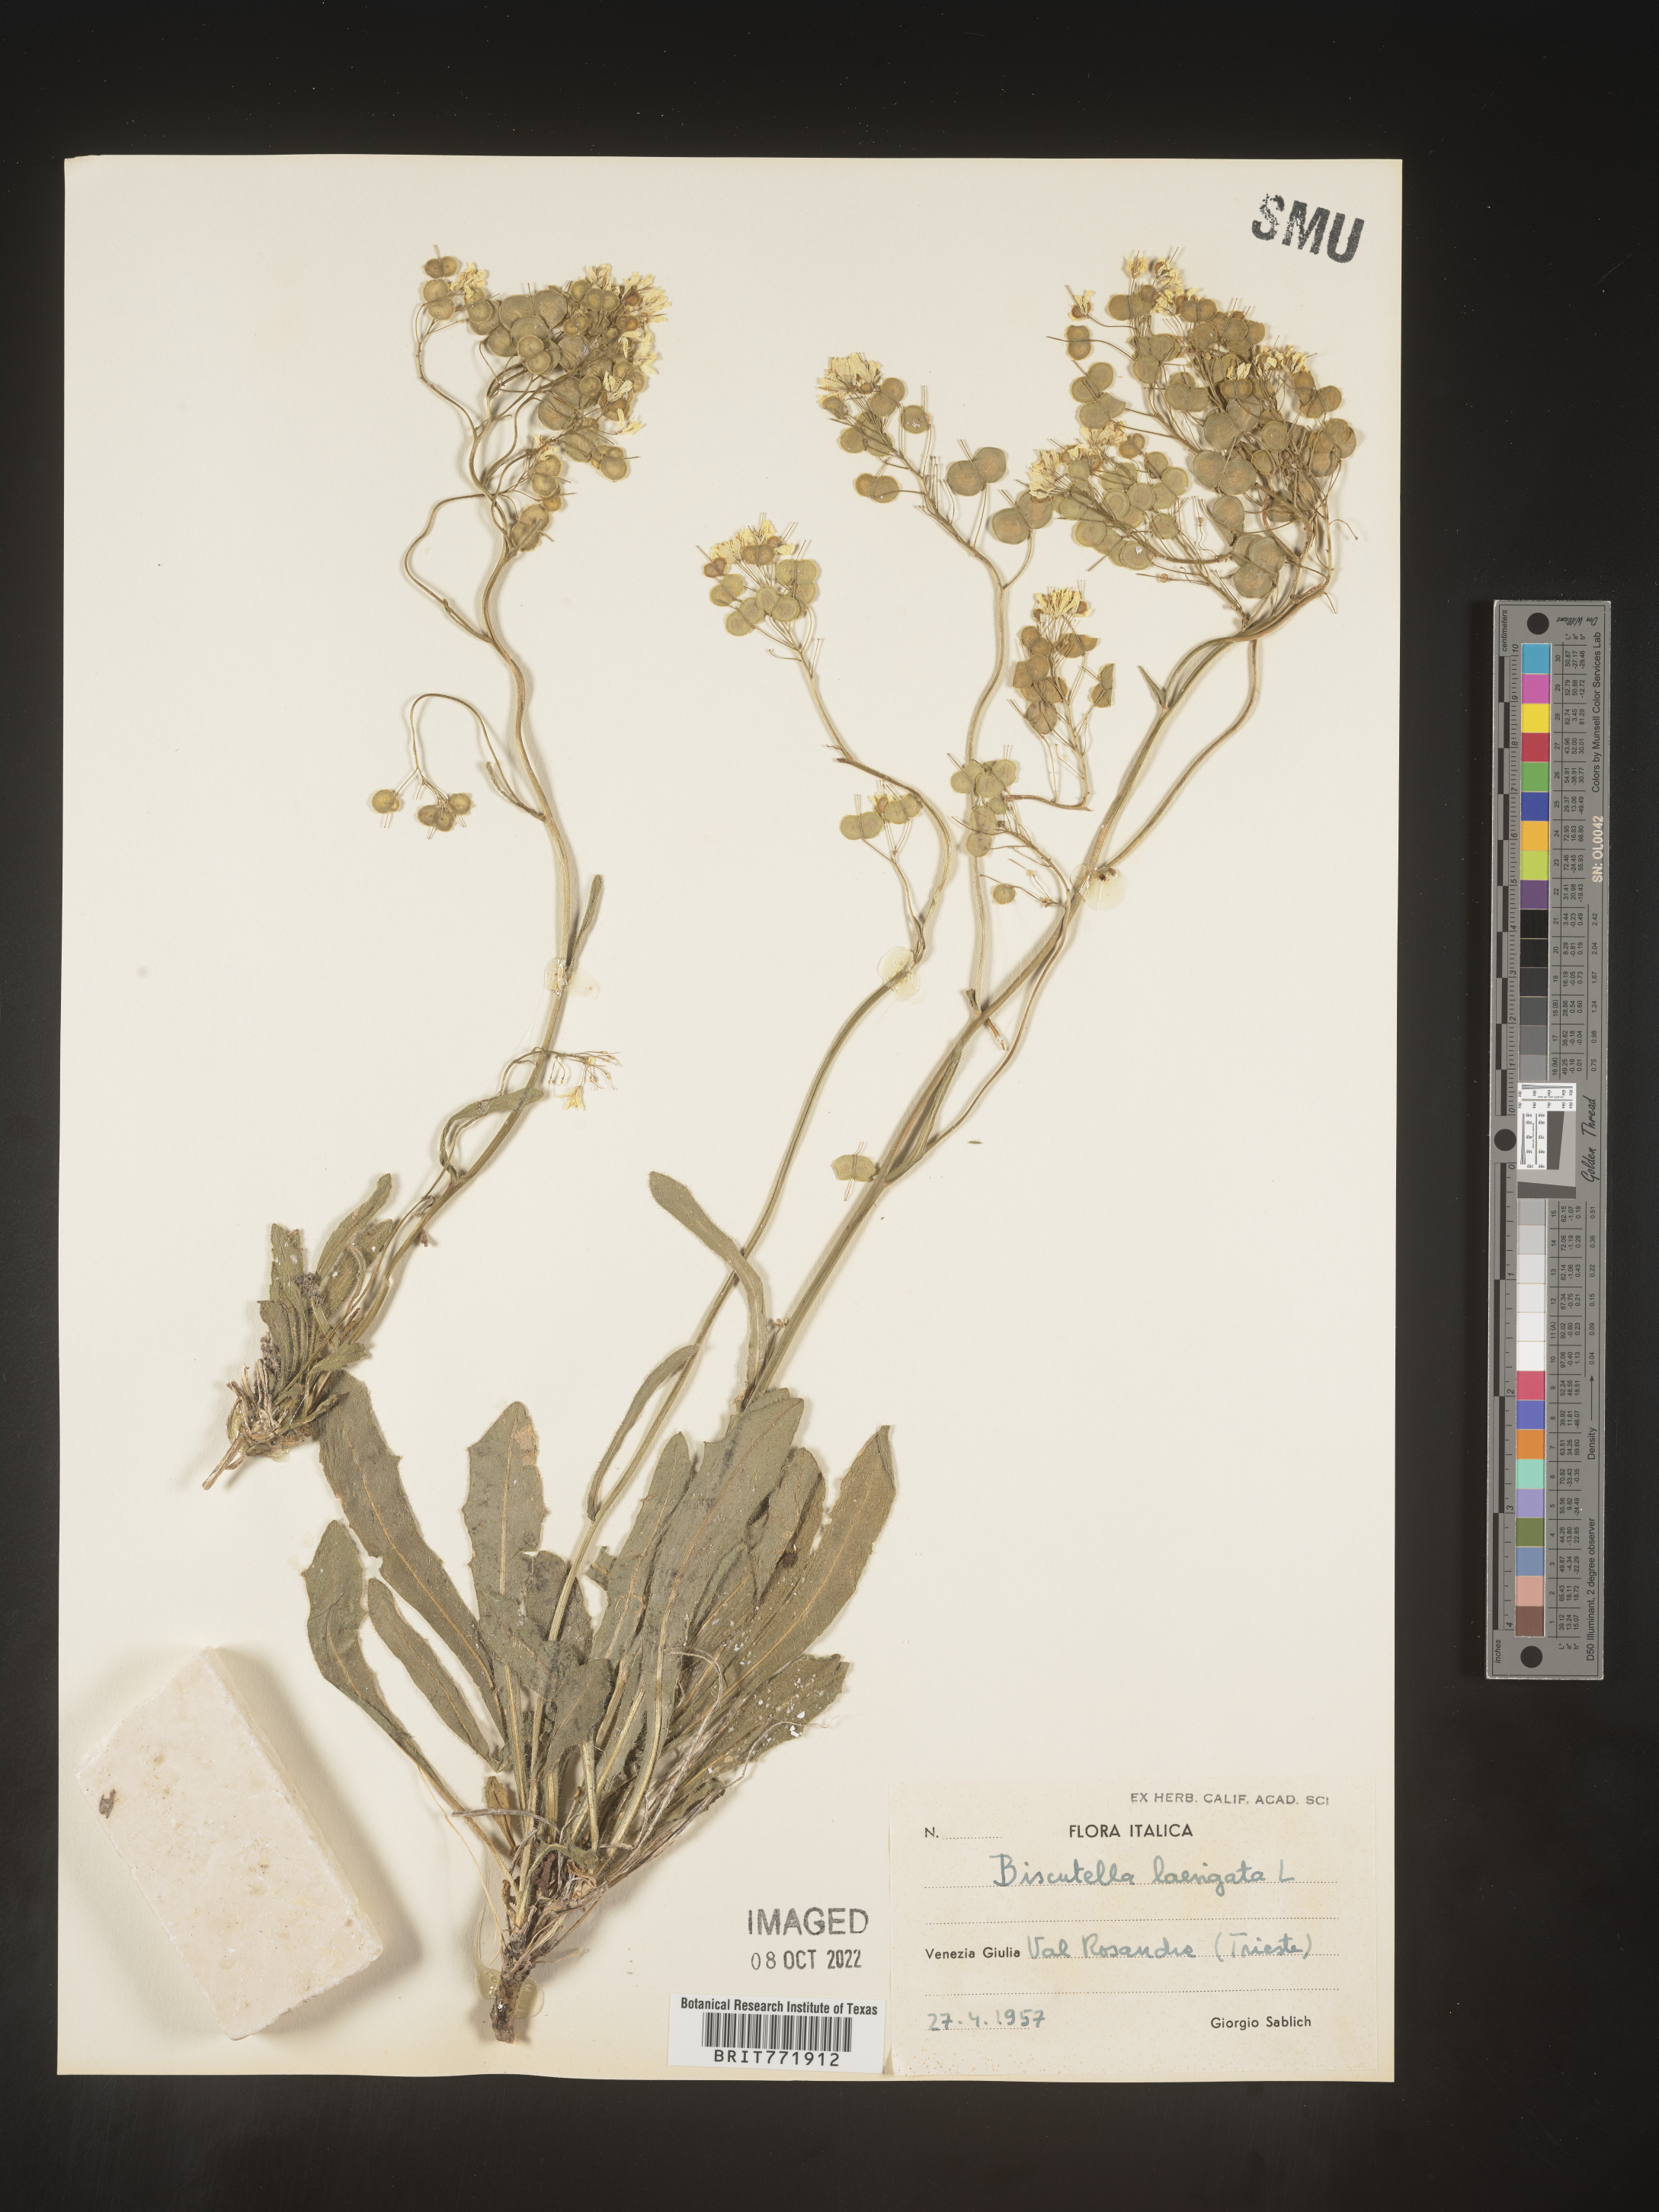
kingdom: Plantae
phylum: Tracheophyta
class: Magnoliopsida
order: Brassicales
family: Brassicaceae
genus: Biscutella
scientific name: Biscutella
